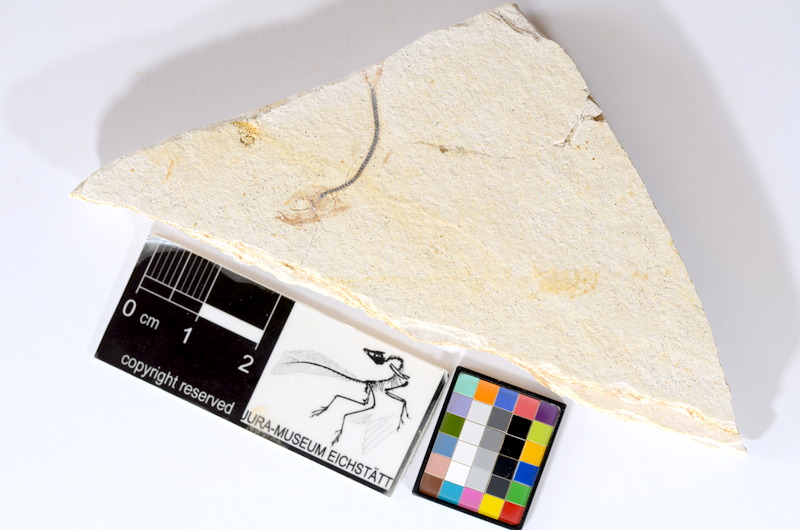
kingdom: Animalia
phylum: Chordata
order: Salmoniformes
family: Orthogonikleithridae
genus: Orthogonikleithrus
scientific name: Orthogonikleithrus hoelli
